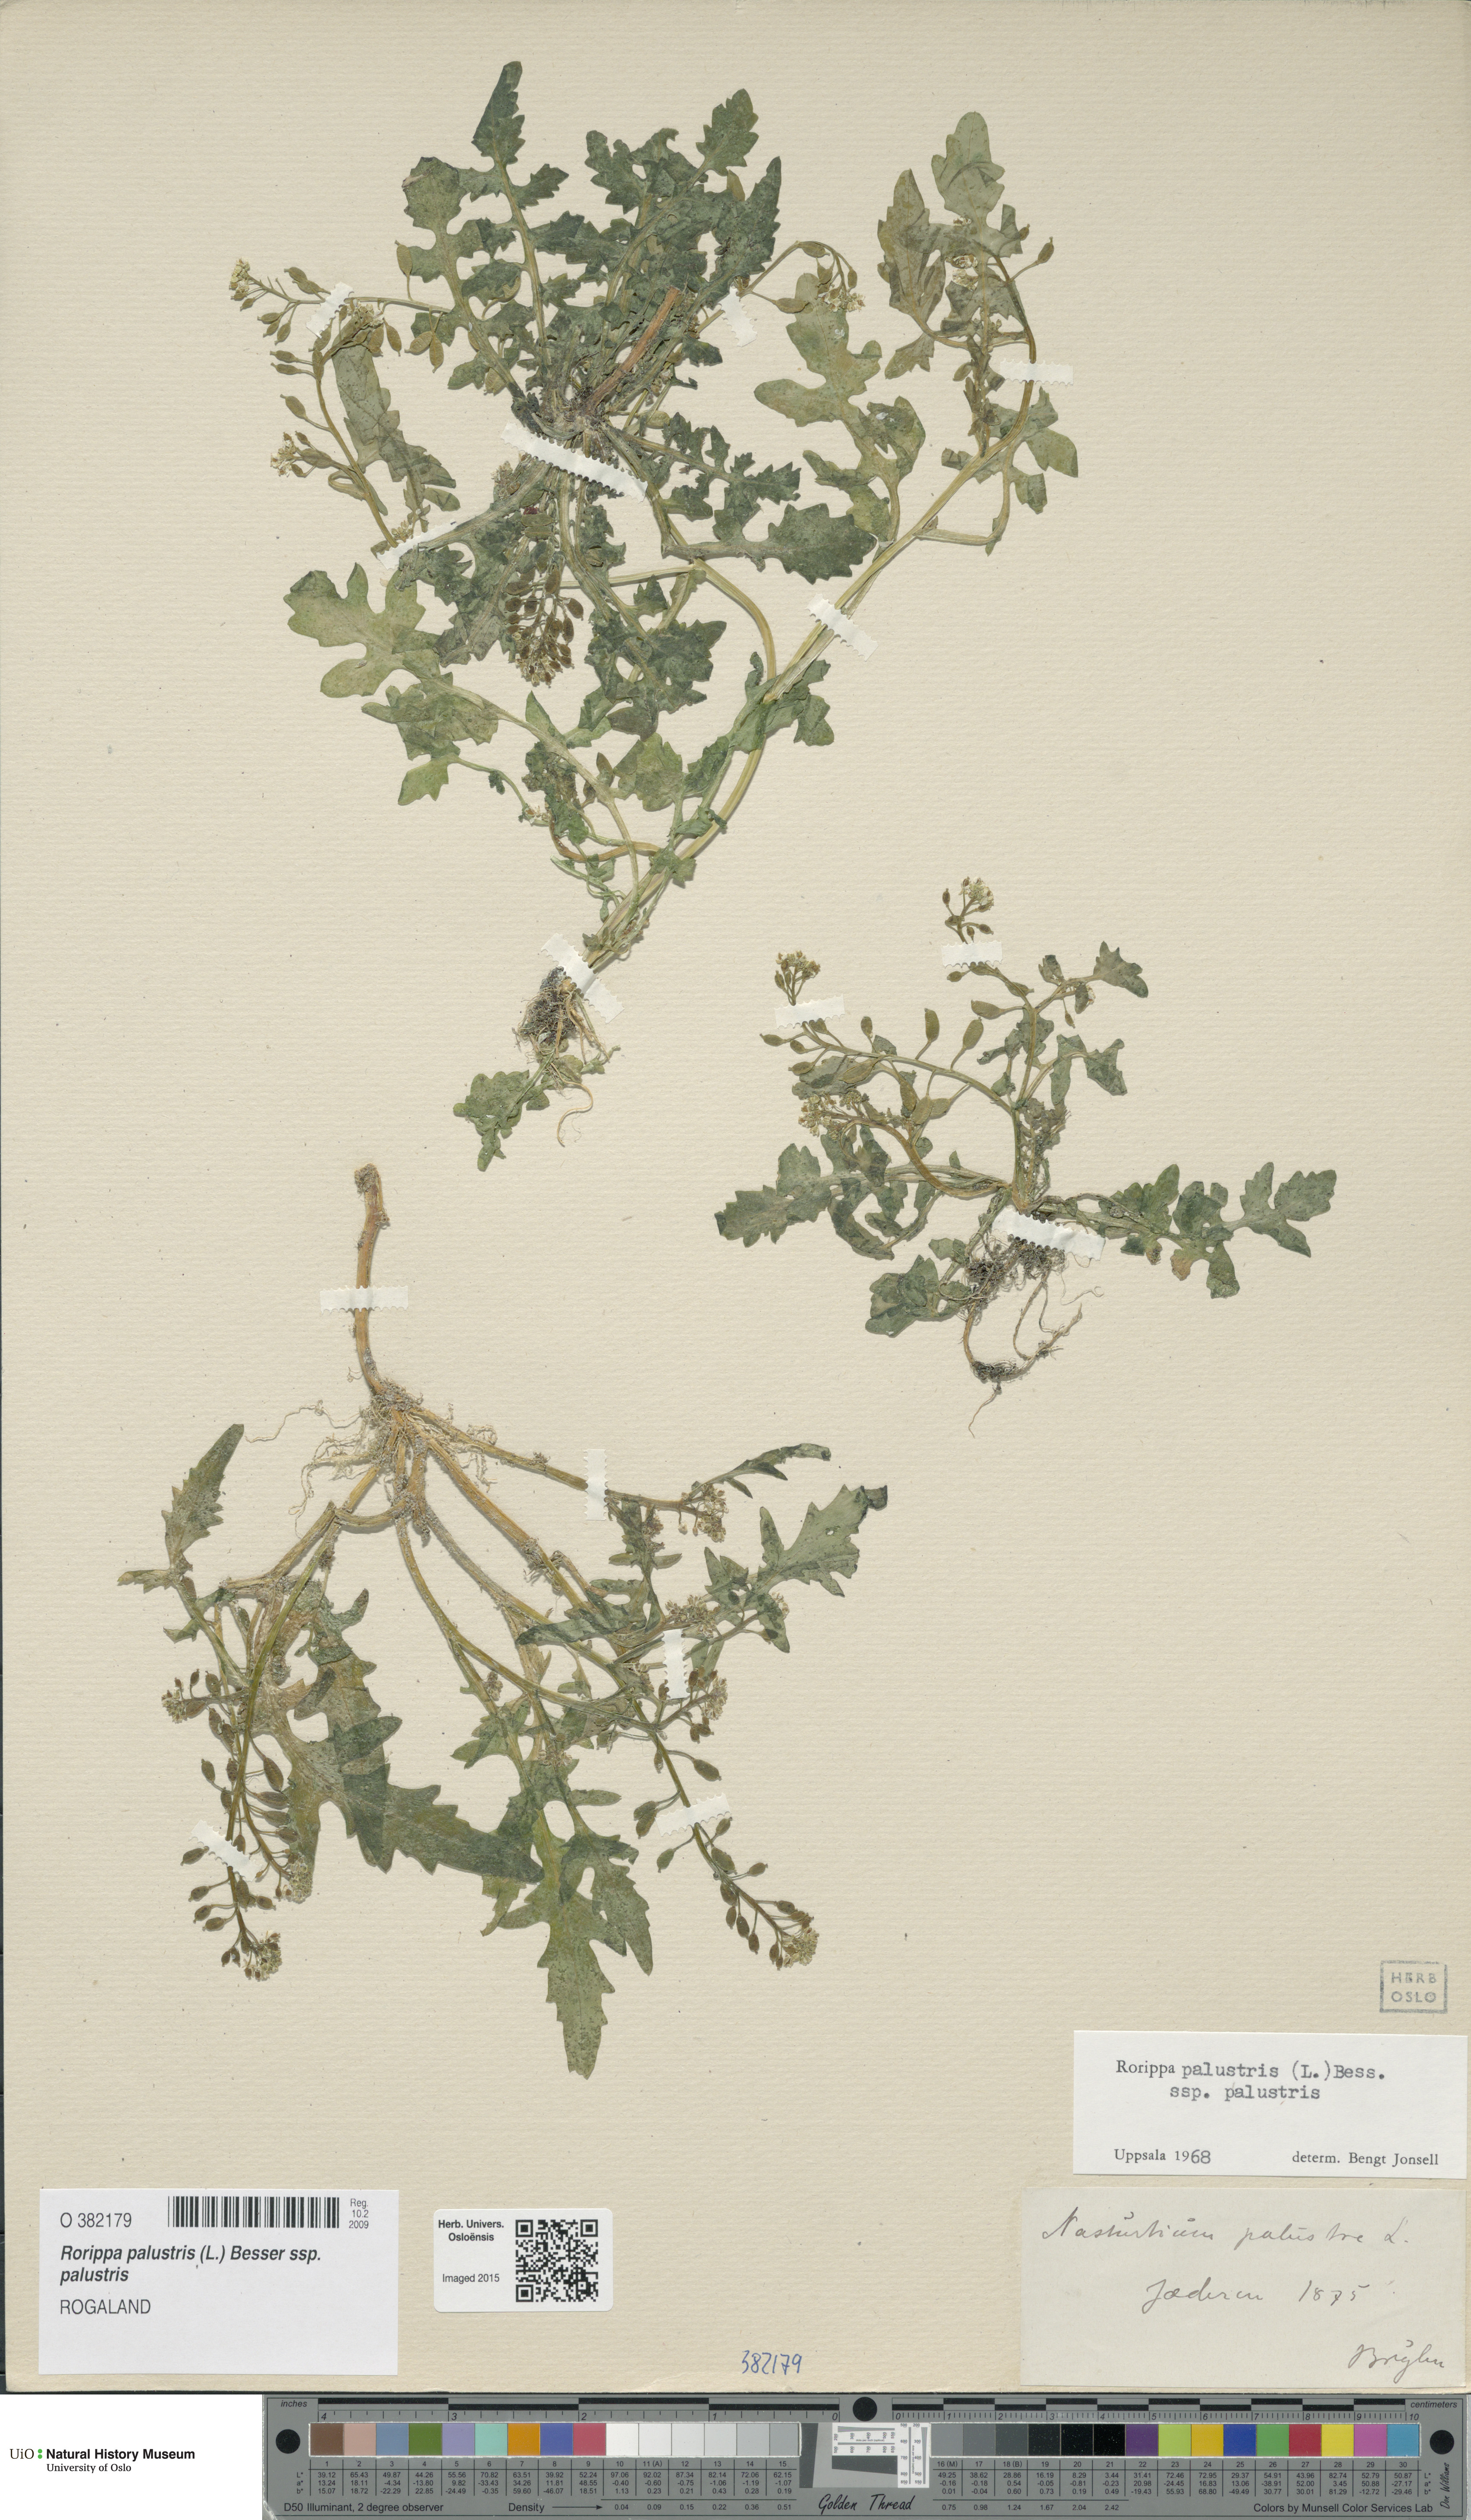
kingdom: Plantae
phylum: Tracheophyta
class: Magnoliopsida
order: Brassicales
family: Brassicaceae
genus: Rorippa
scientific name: Rorippa palustris
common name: Marsh yellow-cress
